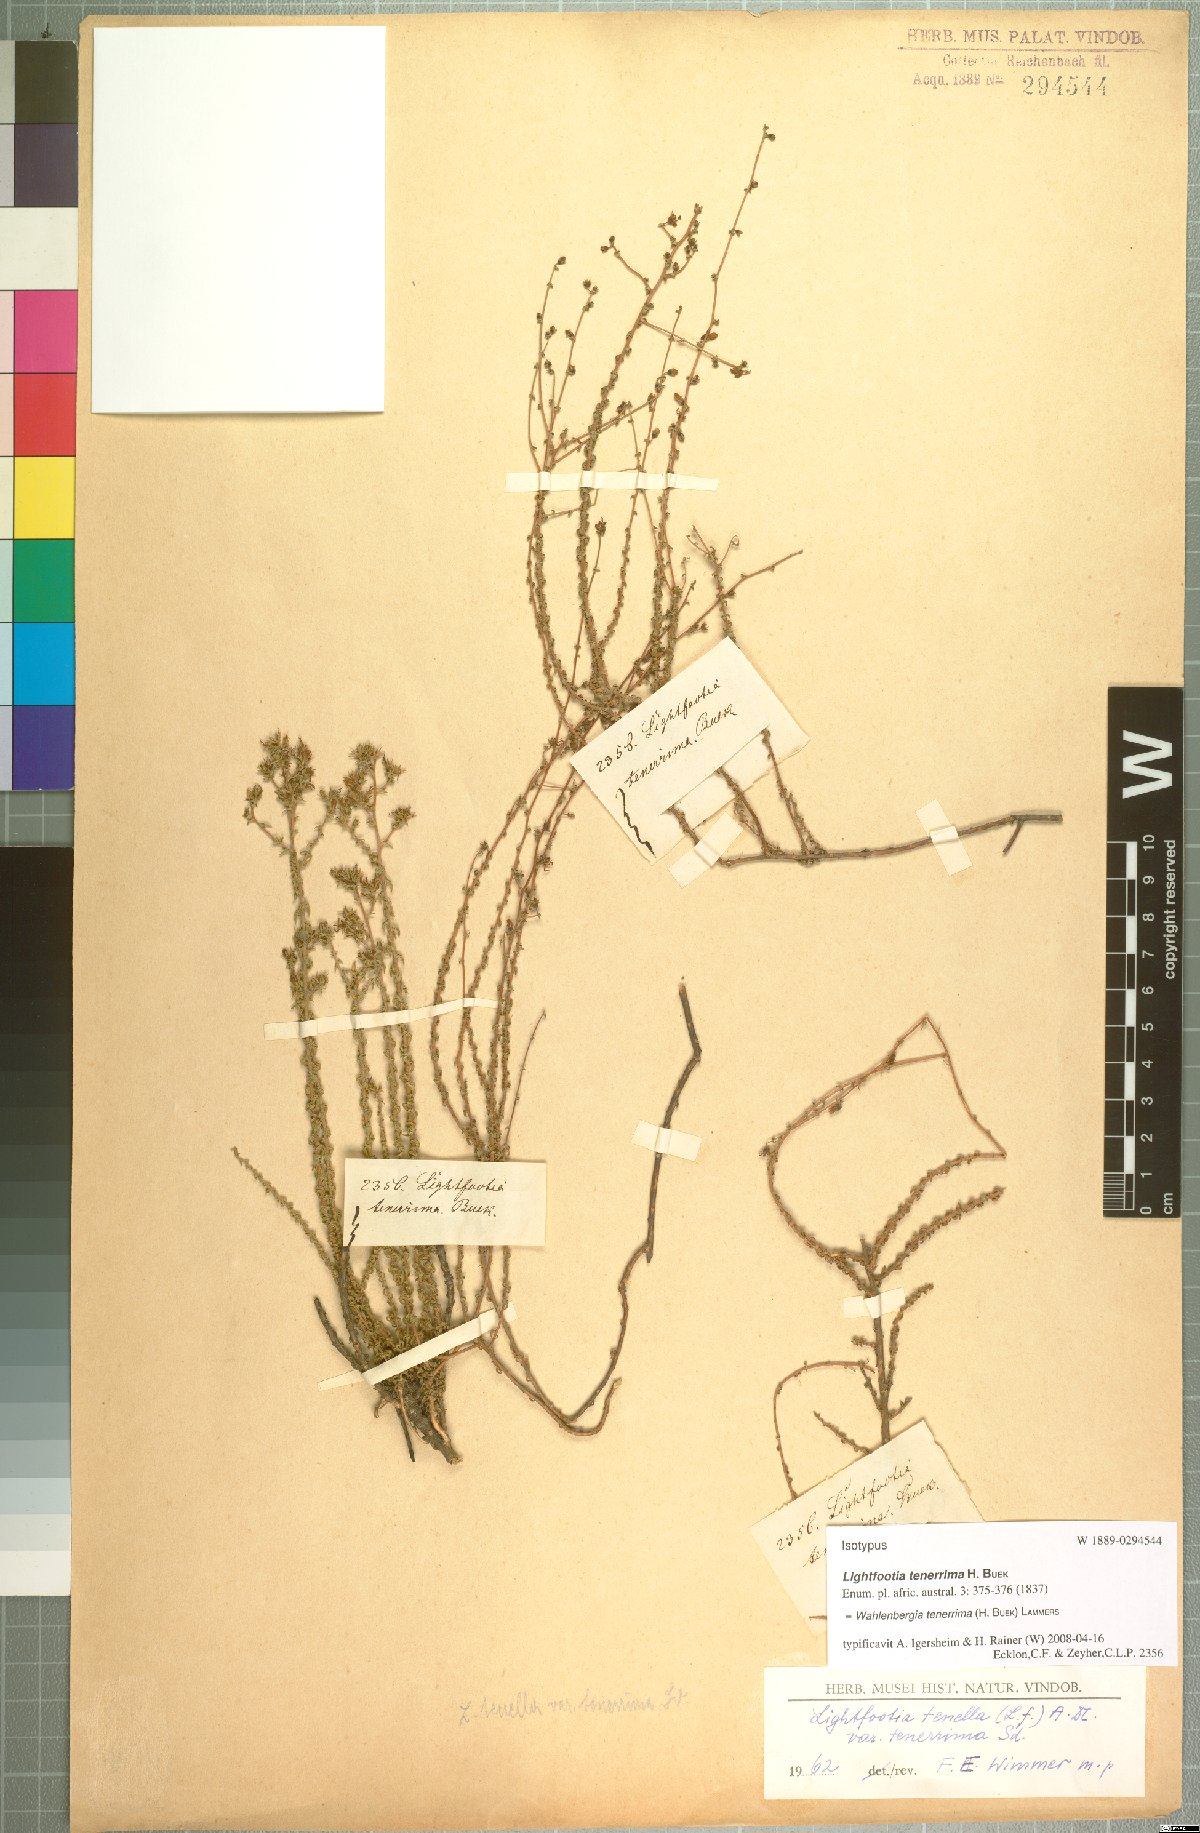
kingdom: Plantae
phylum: Tracheophyta
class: Magnoliopsida
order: Asterales
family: Campanulaceae
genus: Wahlenbergia
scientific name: Wahlenbergia loddigesii
